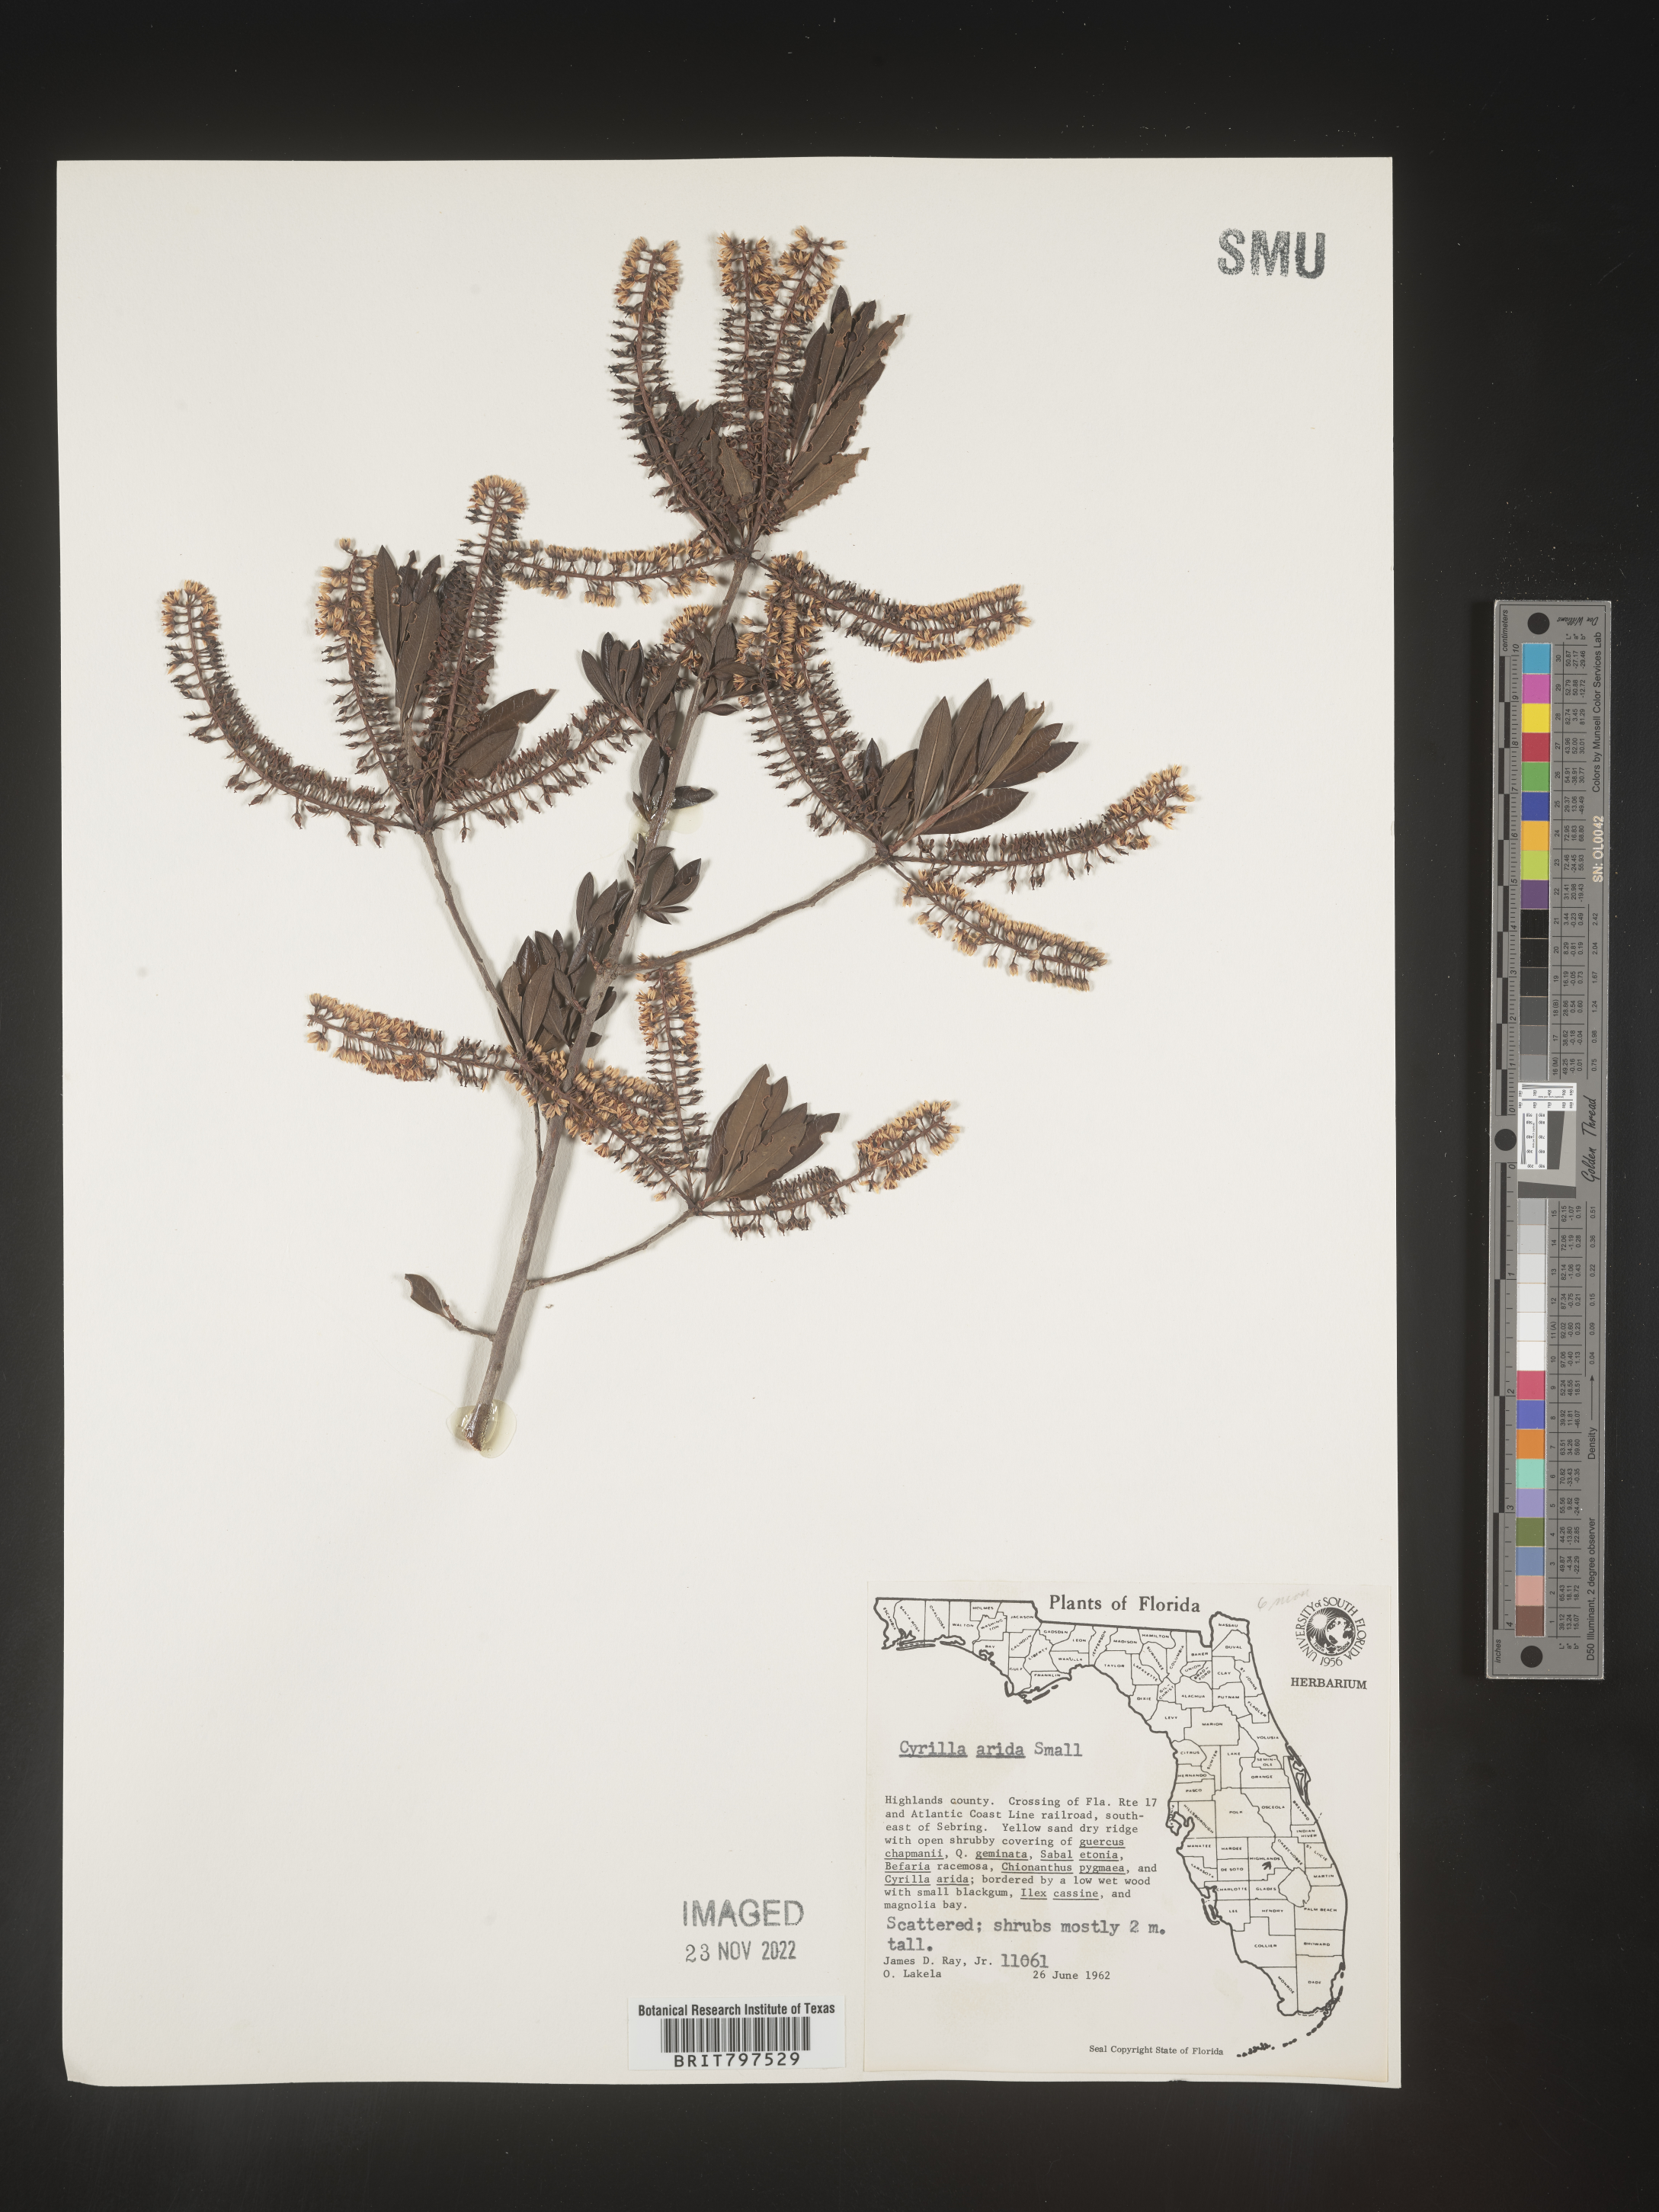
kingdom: Plantae
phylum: Tracheophyta
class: Magnoliopsida
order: Ericales
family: Cyrillaceae
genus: Cyrilla
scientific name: Cyrilla racemiflora
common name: Black titi
